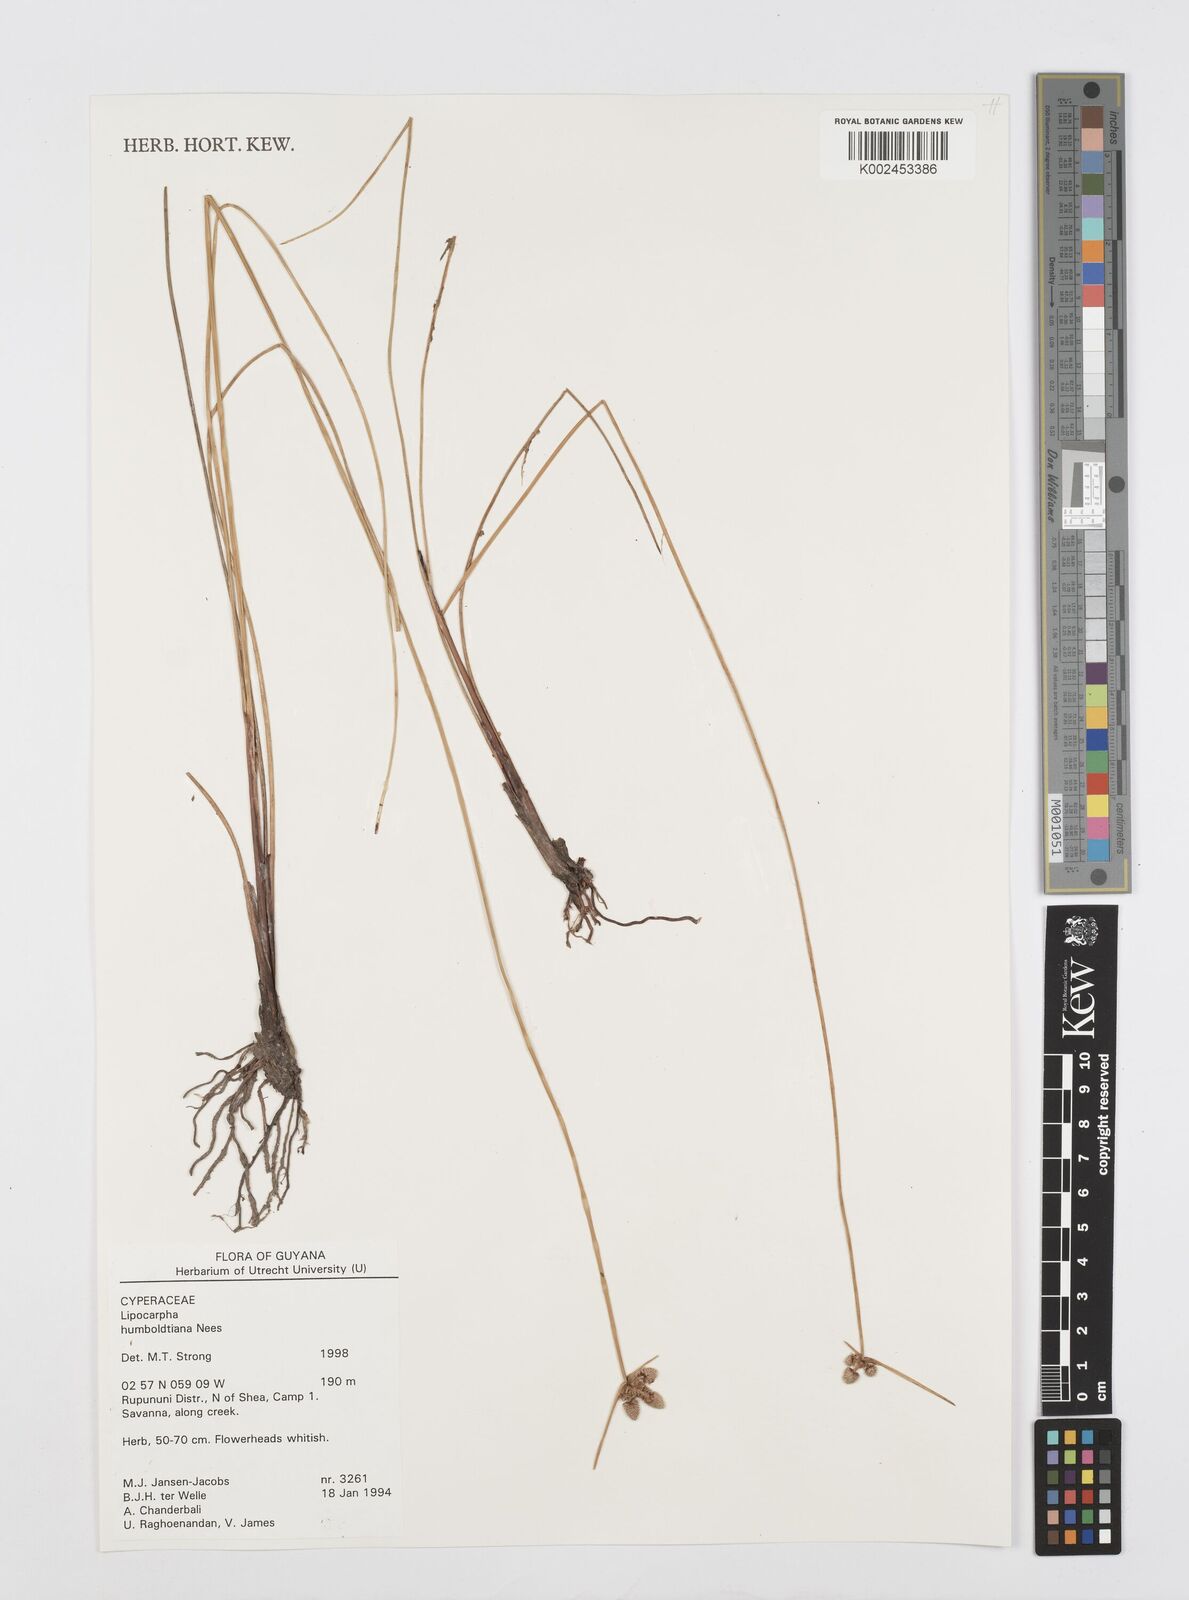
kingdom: Plantae
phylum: Tracheophyta
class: Liliopsida
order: Poales
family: Cyperaceae
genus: Cyperus
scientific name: Cyperus lanceolatus
